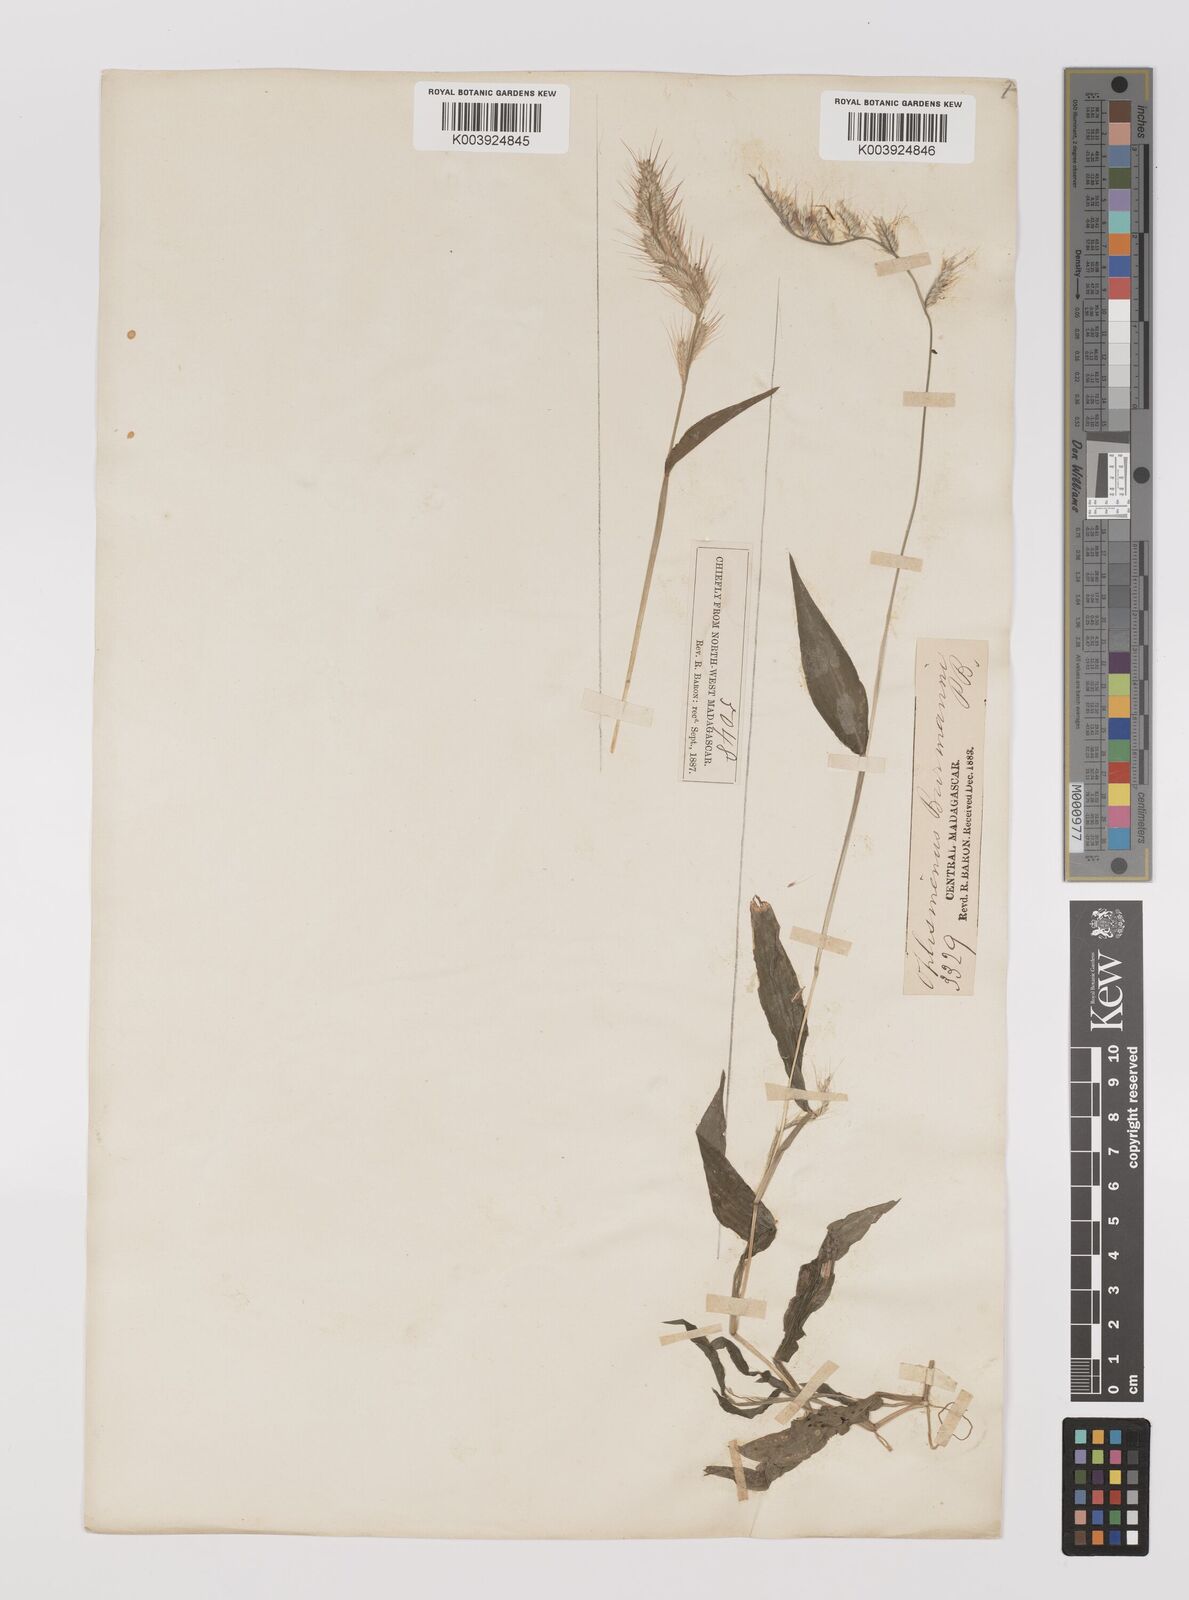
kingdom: Plantae
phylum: Tracheophyta
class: Liliopsida
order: Poales
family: Poaceae
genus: Oplismenus
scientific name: Oplismenus burmanni
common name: Burmann's basketgrass
